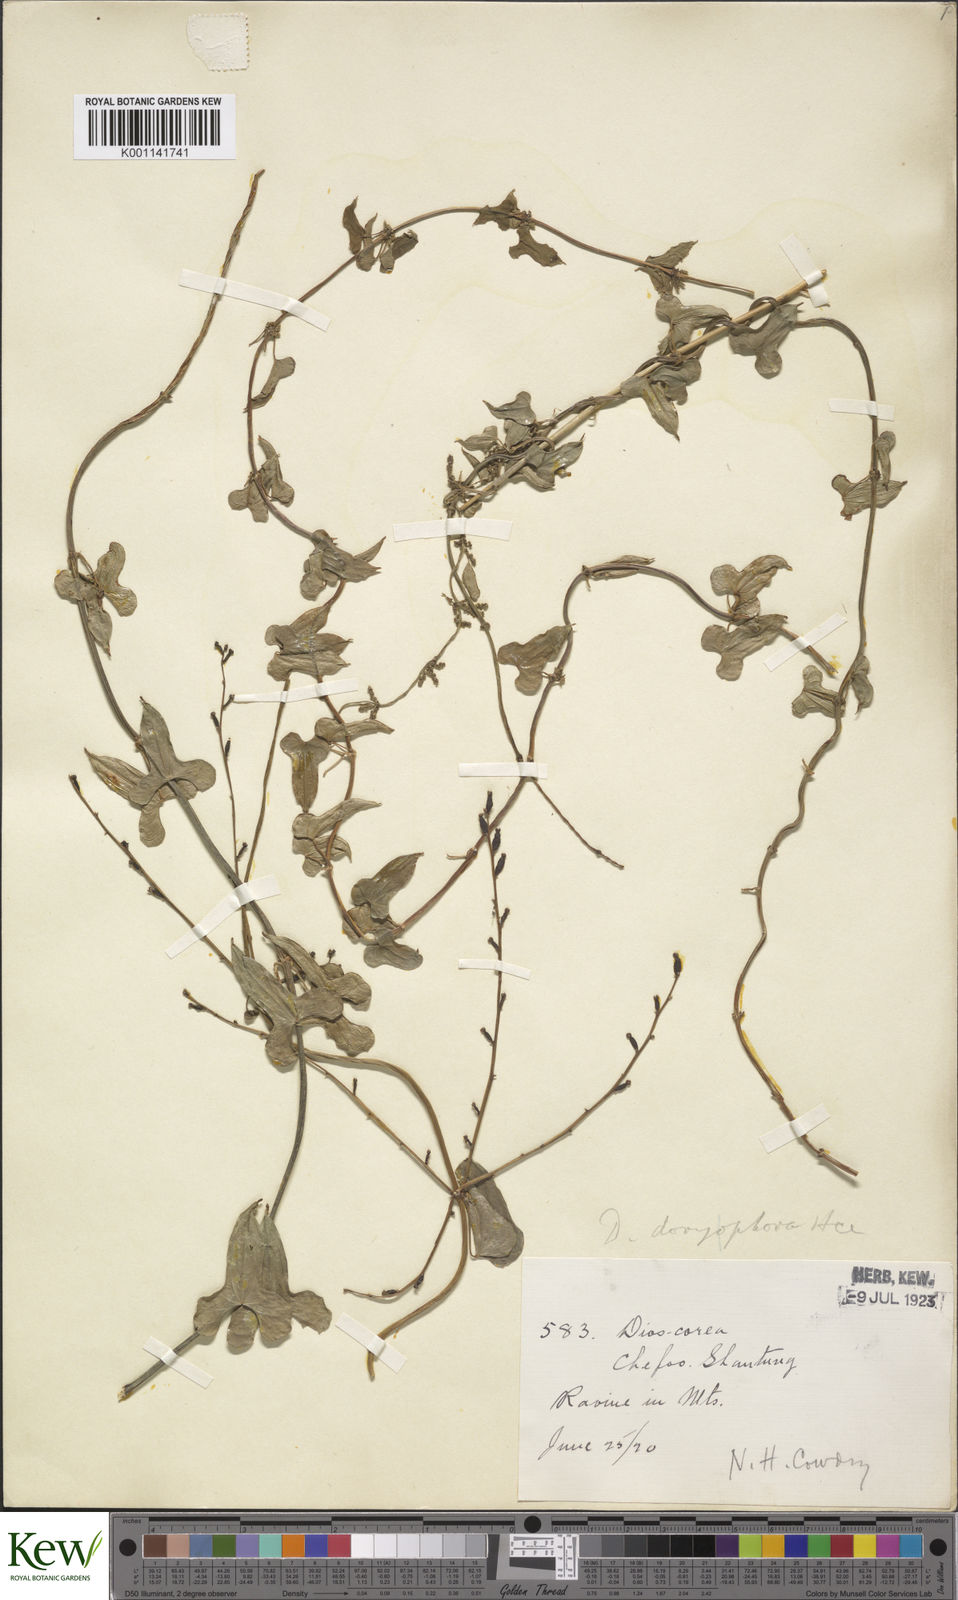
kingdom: Plantae
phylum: Tracheophyta
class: Liliopsida
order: Dioscoreales
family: Dioscoreaceae
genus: Dioscorea
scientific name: Dioscorea polystachya
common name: Chinese yam
